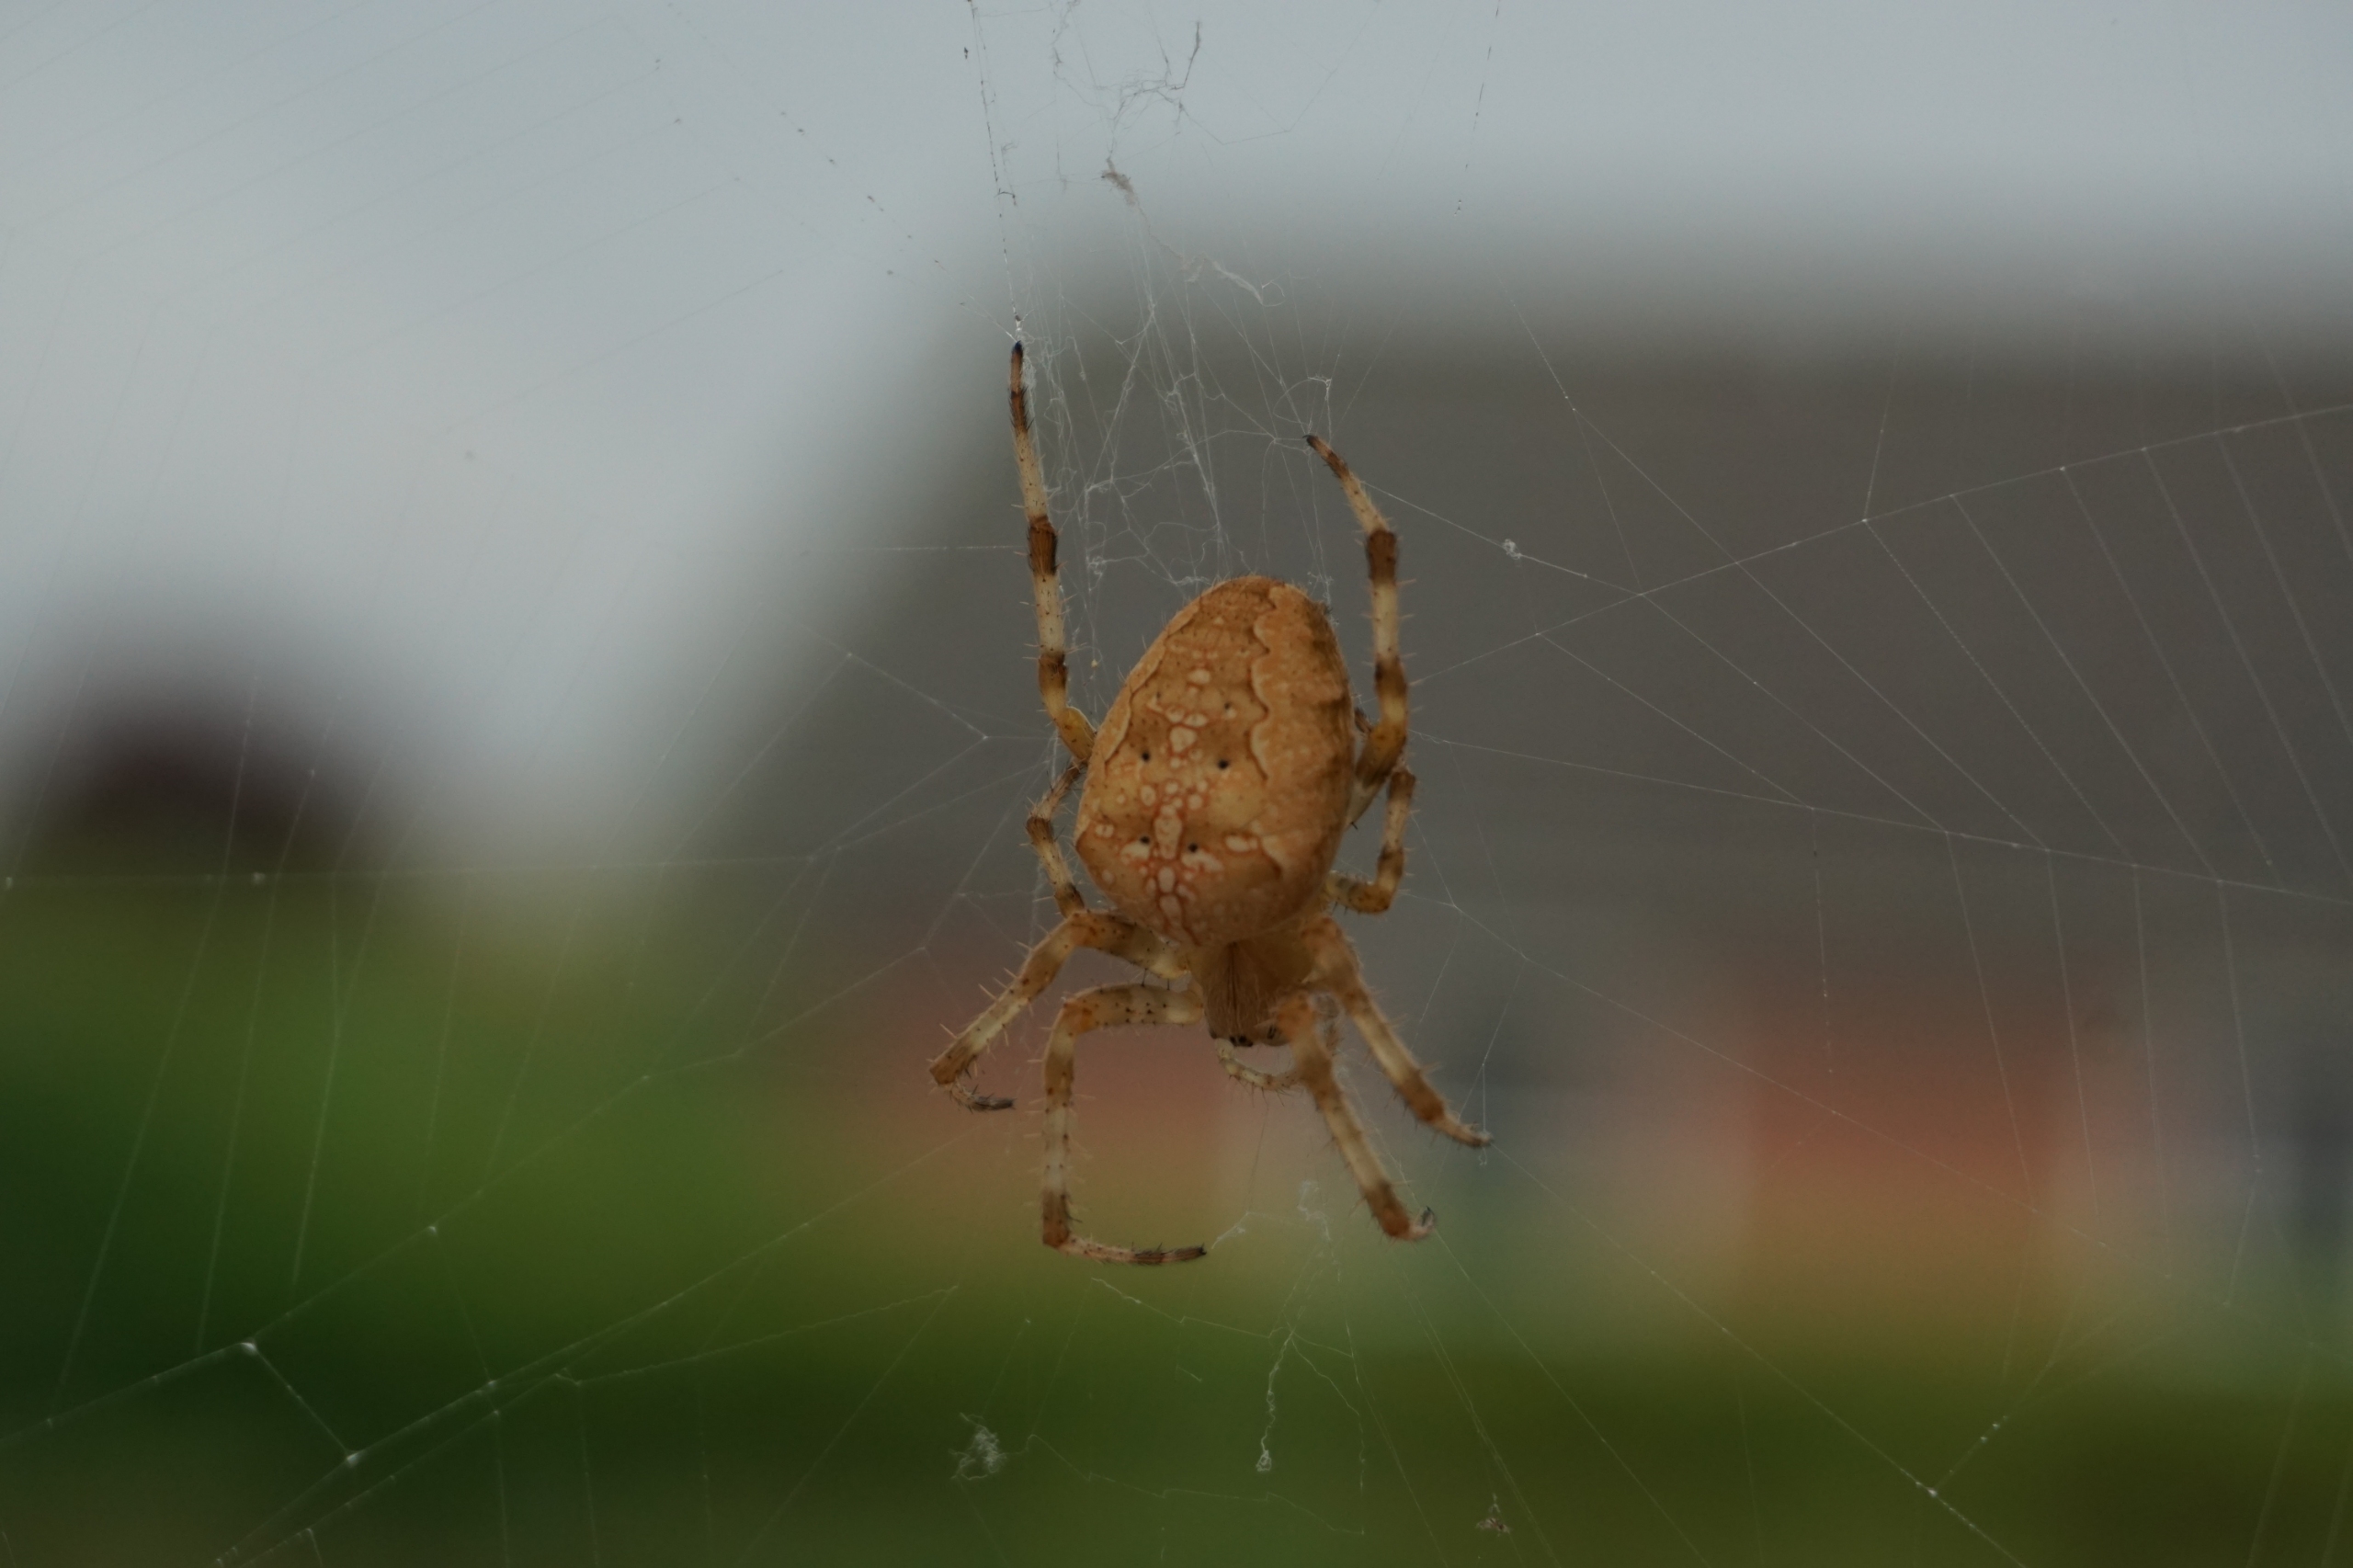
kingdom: Animalia
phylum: Arthropoda
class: Arachnida
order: Araneae
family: Araneidae
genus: Araneus
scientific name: Araneus diadematus
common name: Korsedderkop
